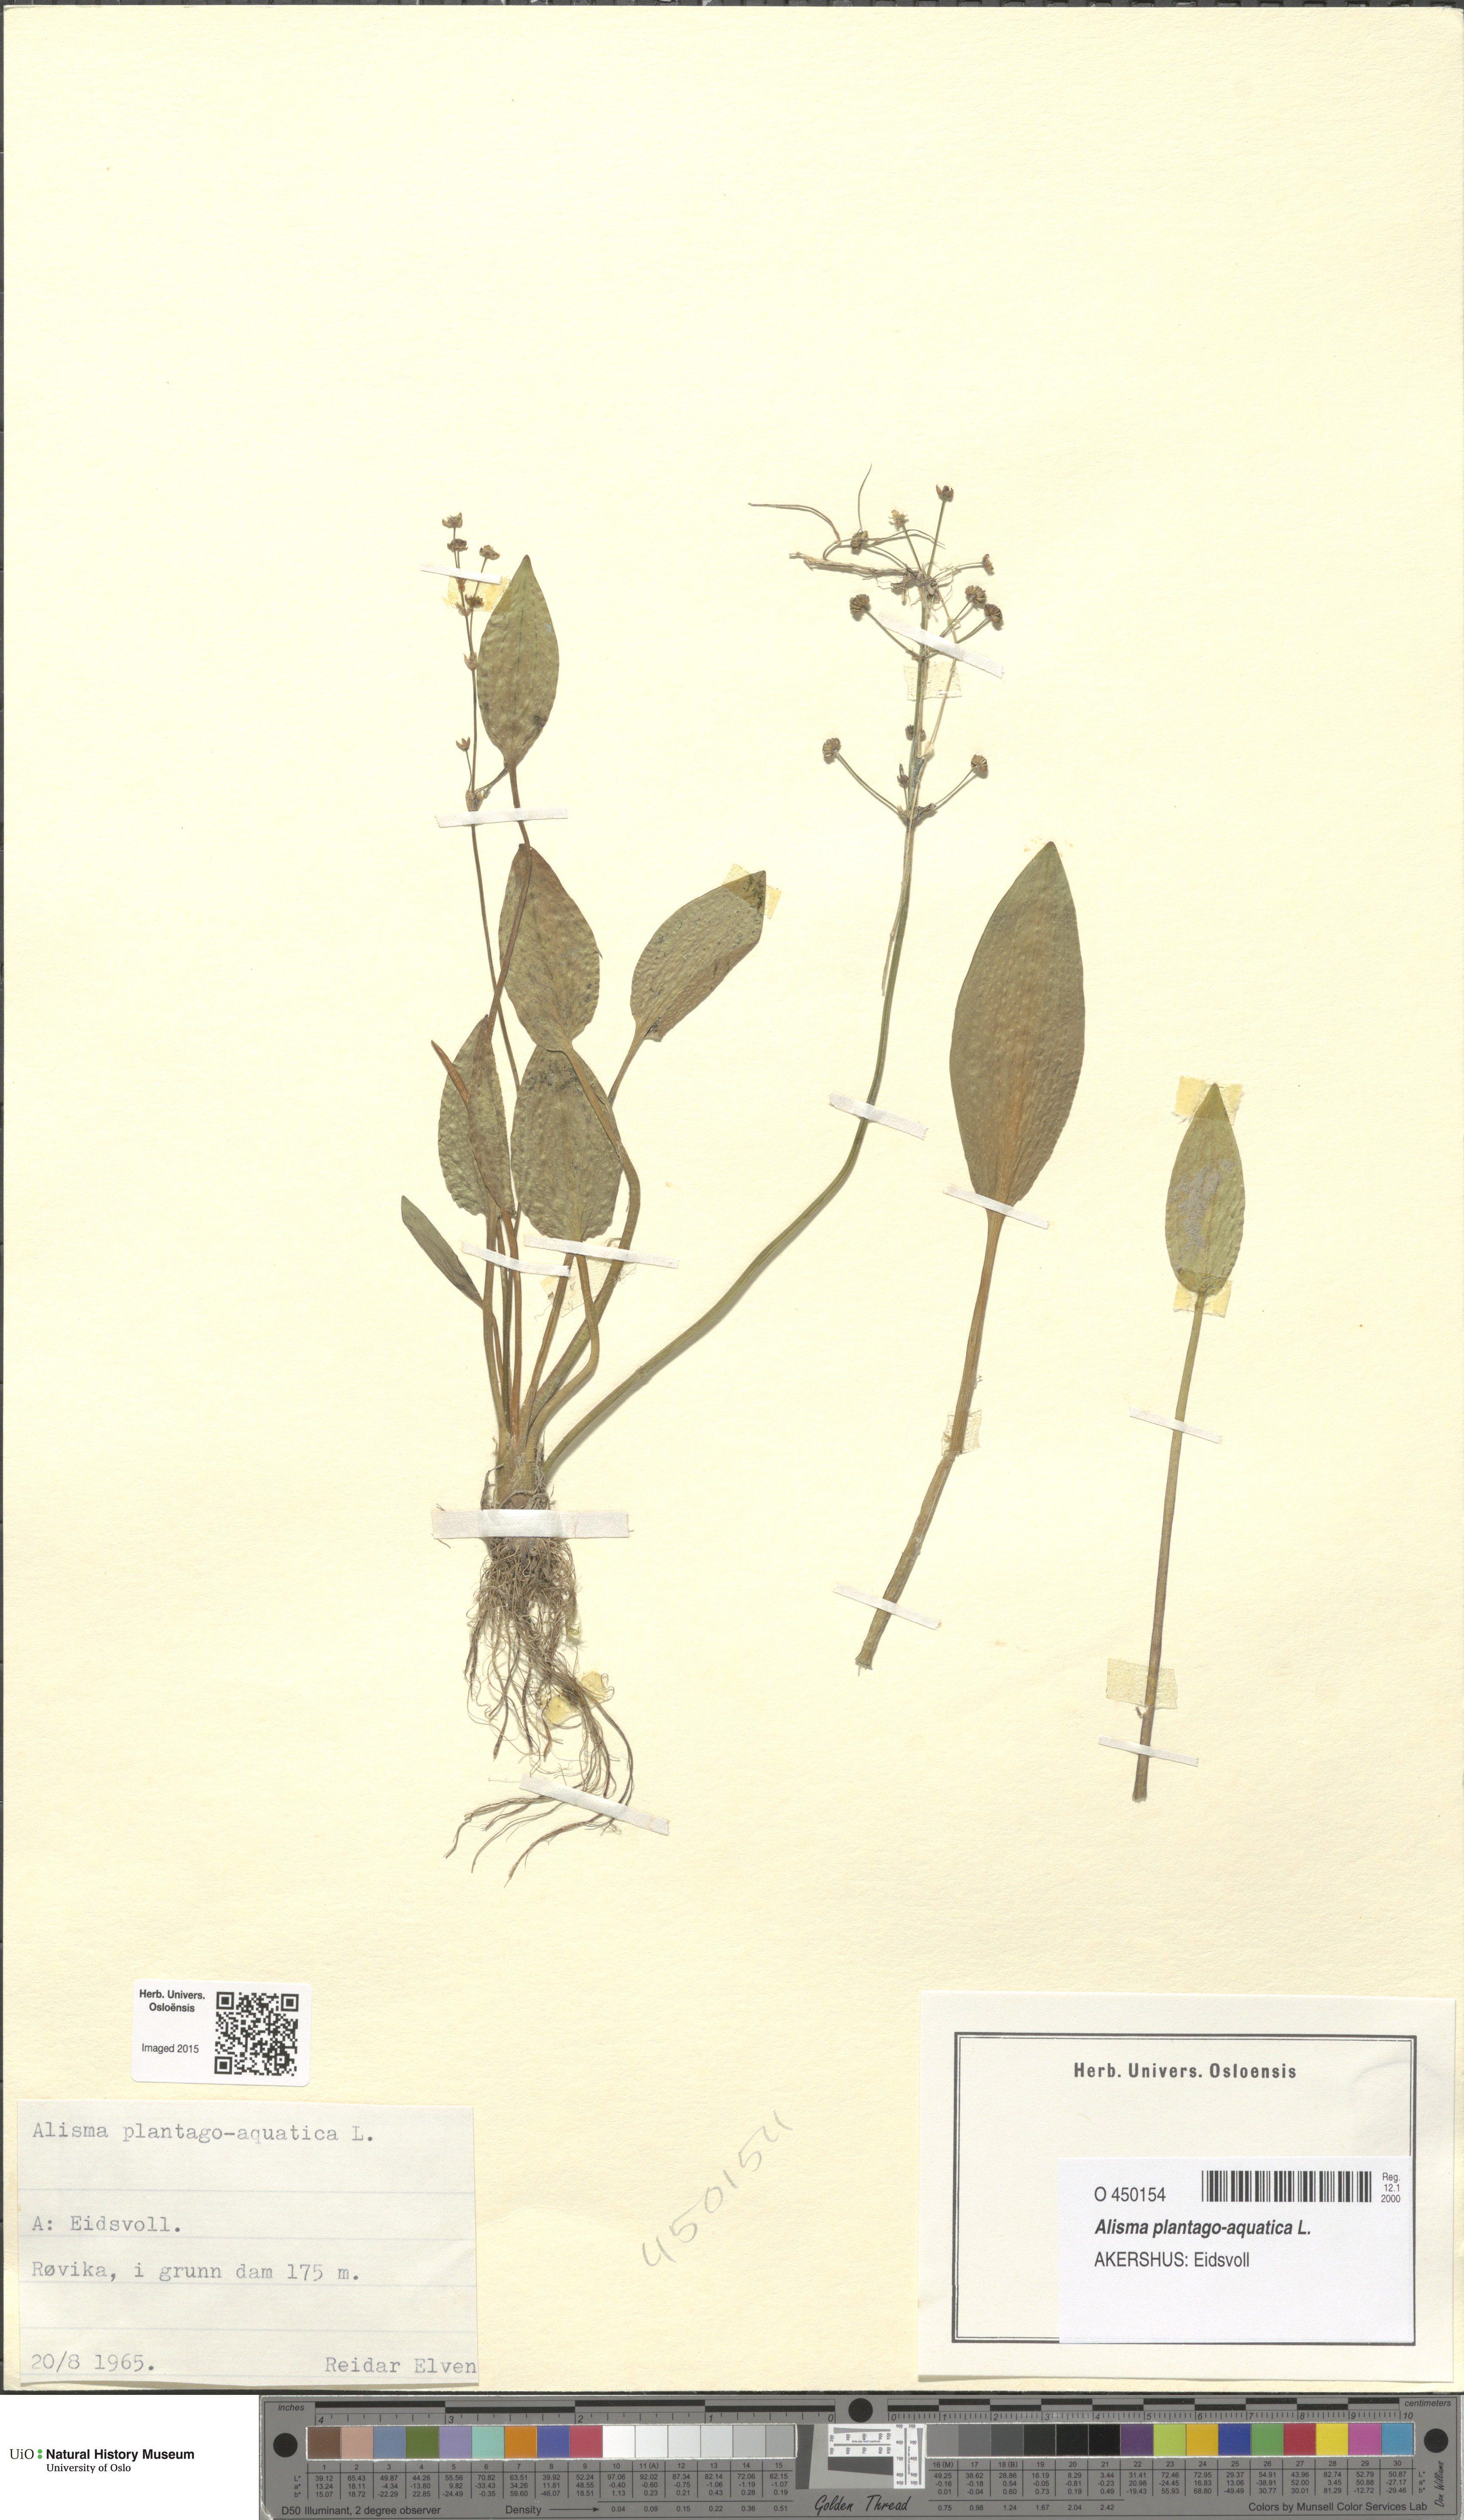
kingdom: Plantae
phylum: Tracheophyta
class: Liliopsida
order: Alismatales
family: Alismataceae
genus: Alisma
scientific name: Alisma plantago-aquatica
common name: Water-plantain
